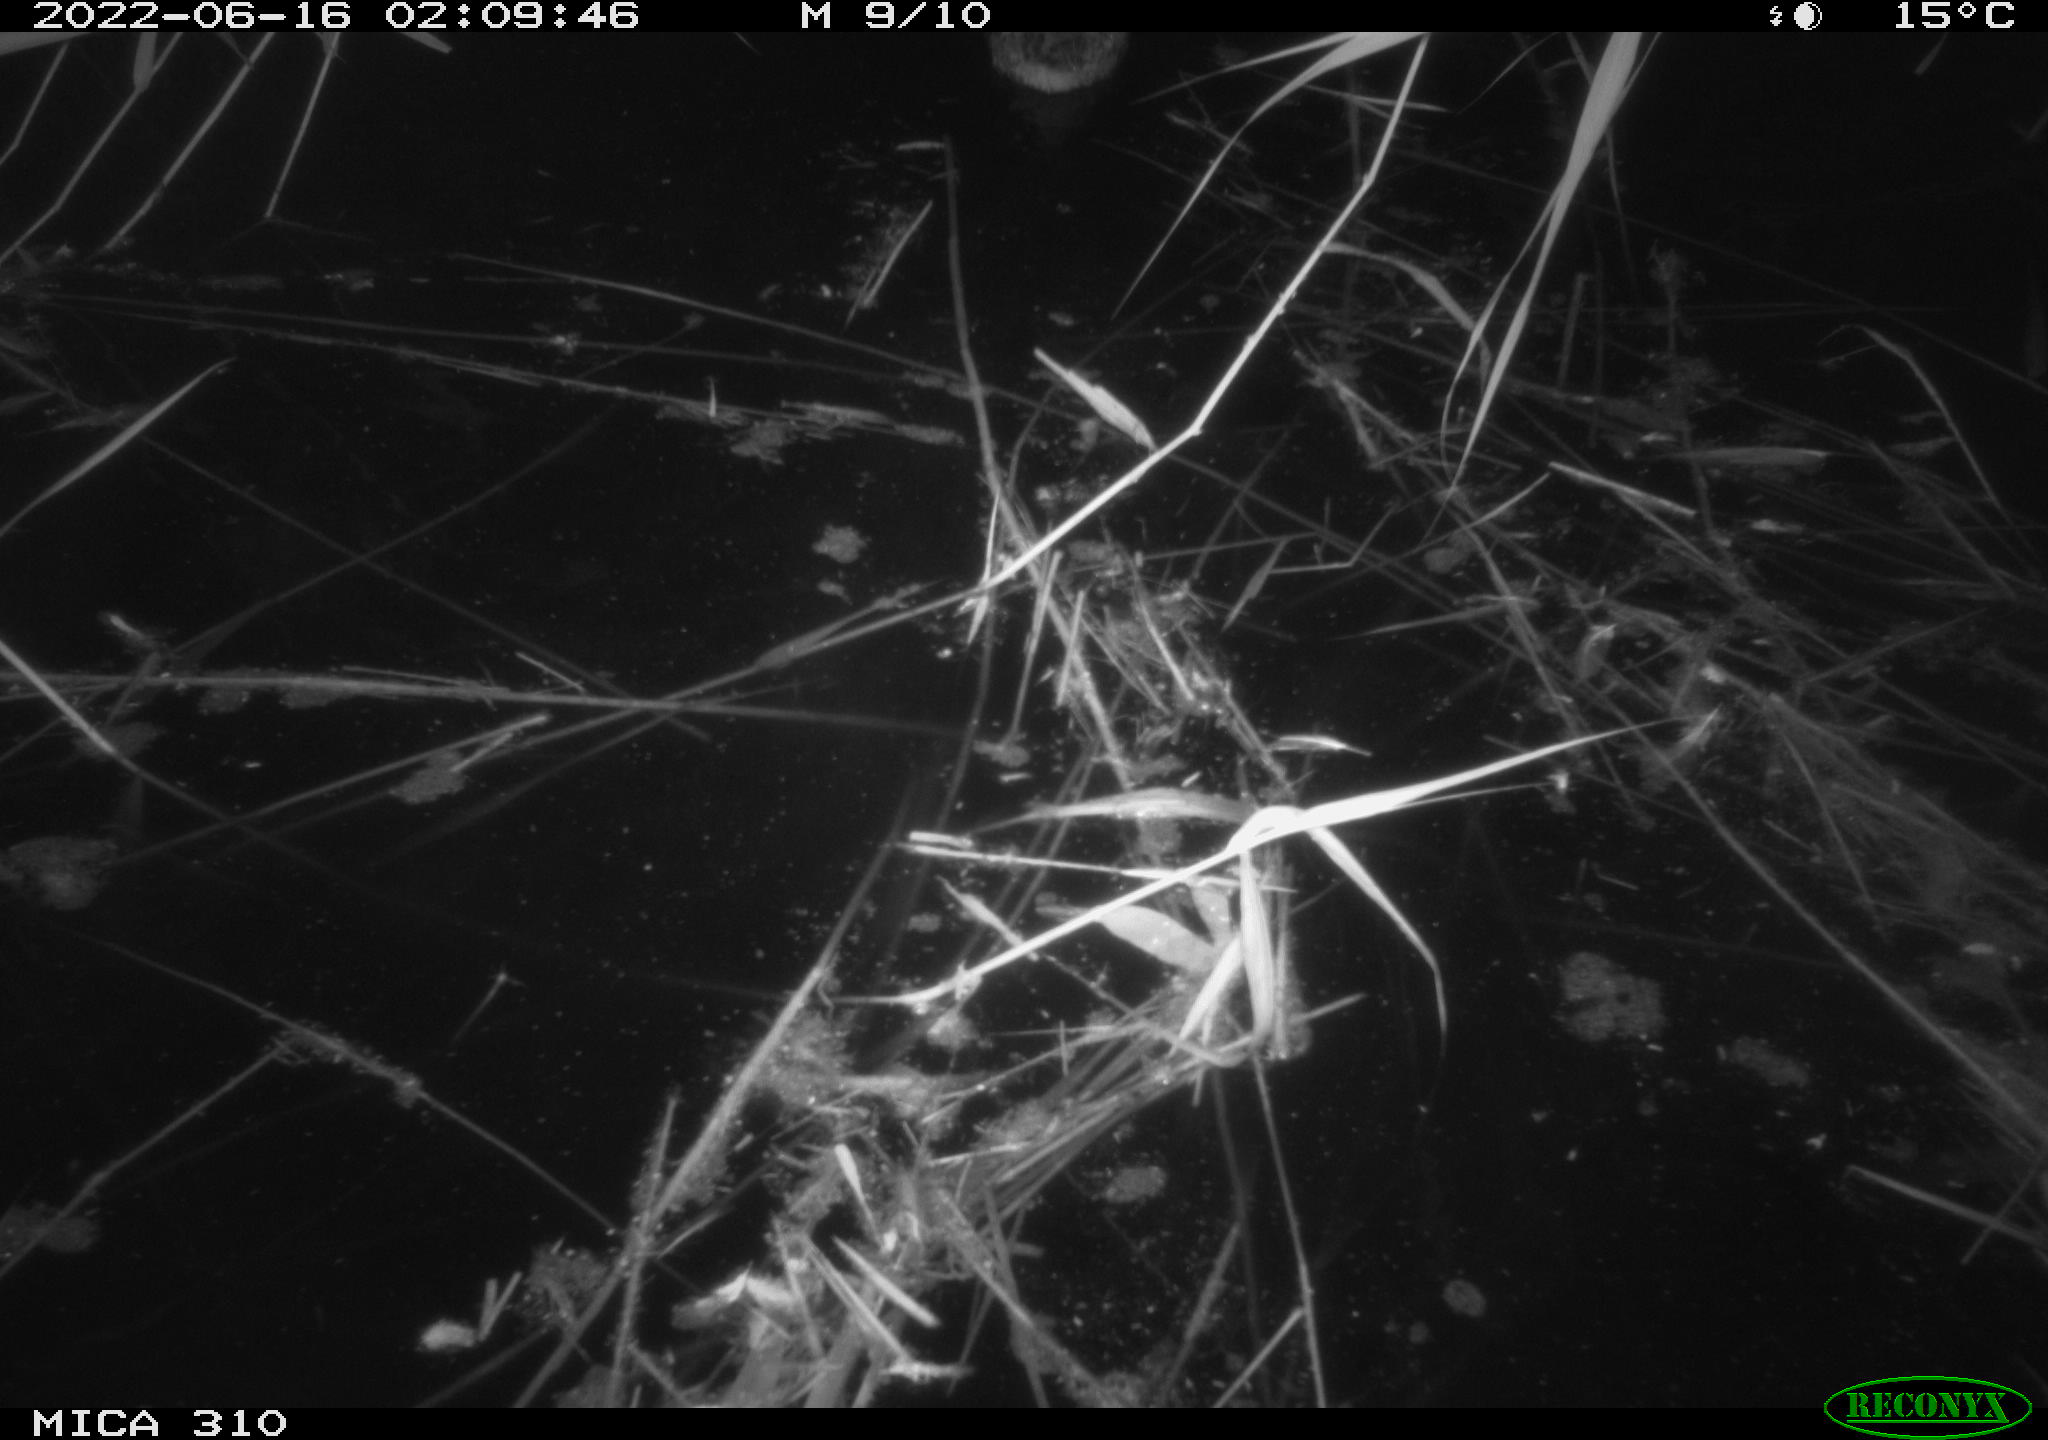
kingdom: Animalia
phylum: Chordata
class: Aves
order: Anseriformes
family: Anatidae
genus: Anas
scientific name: Anas platyrhynchos
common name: Mallard
